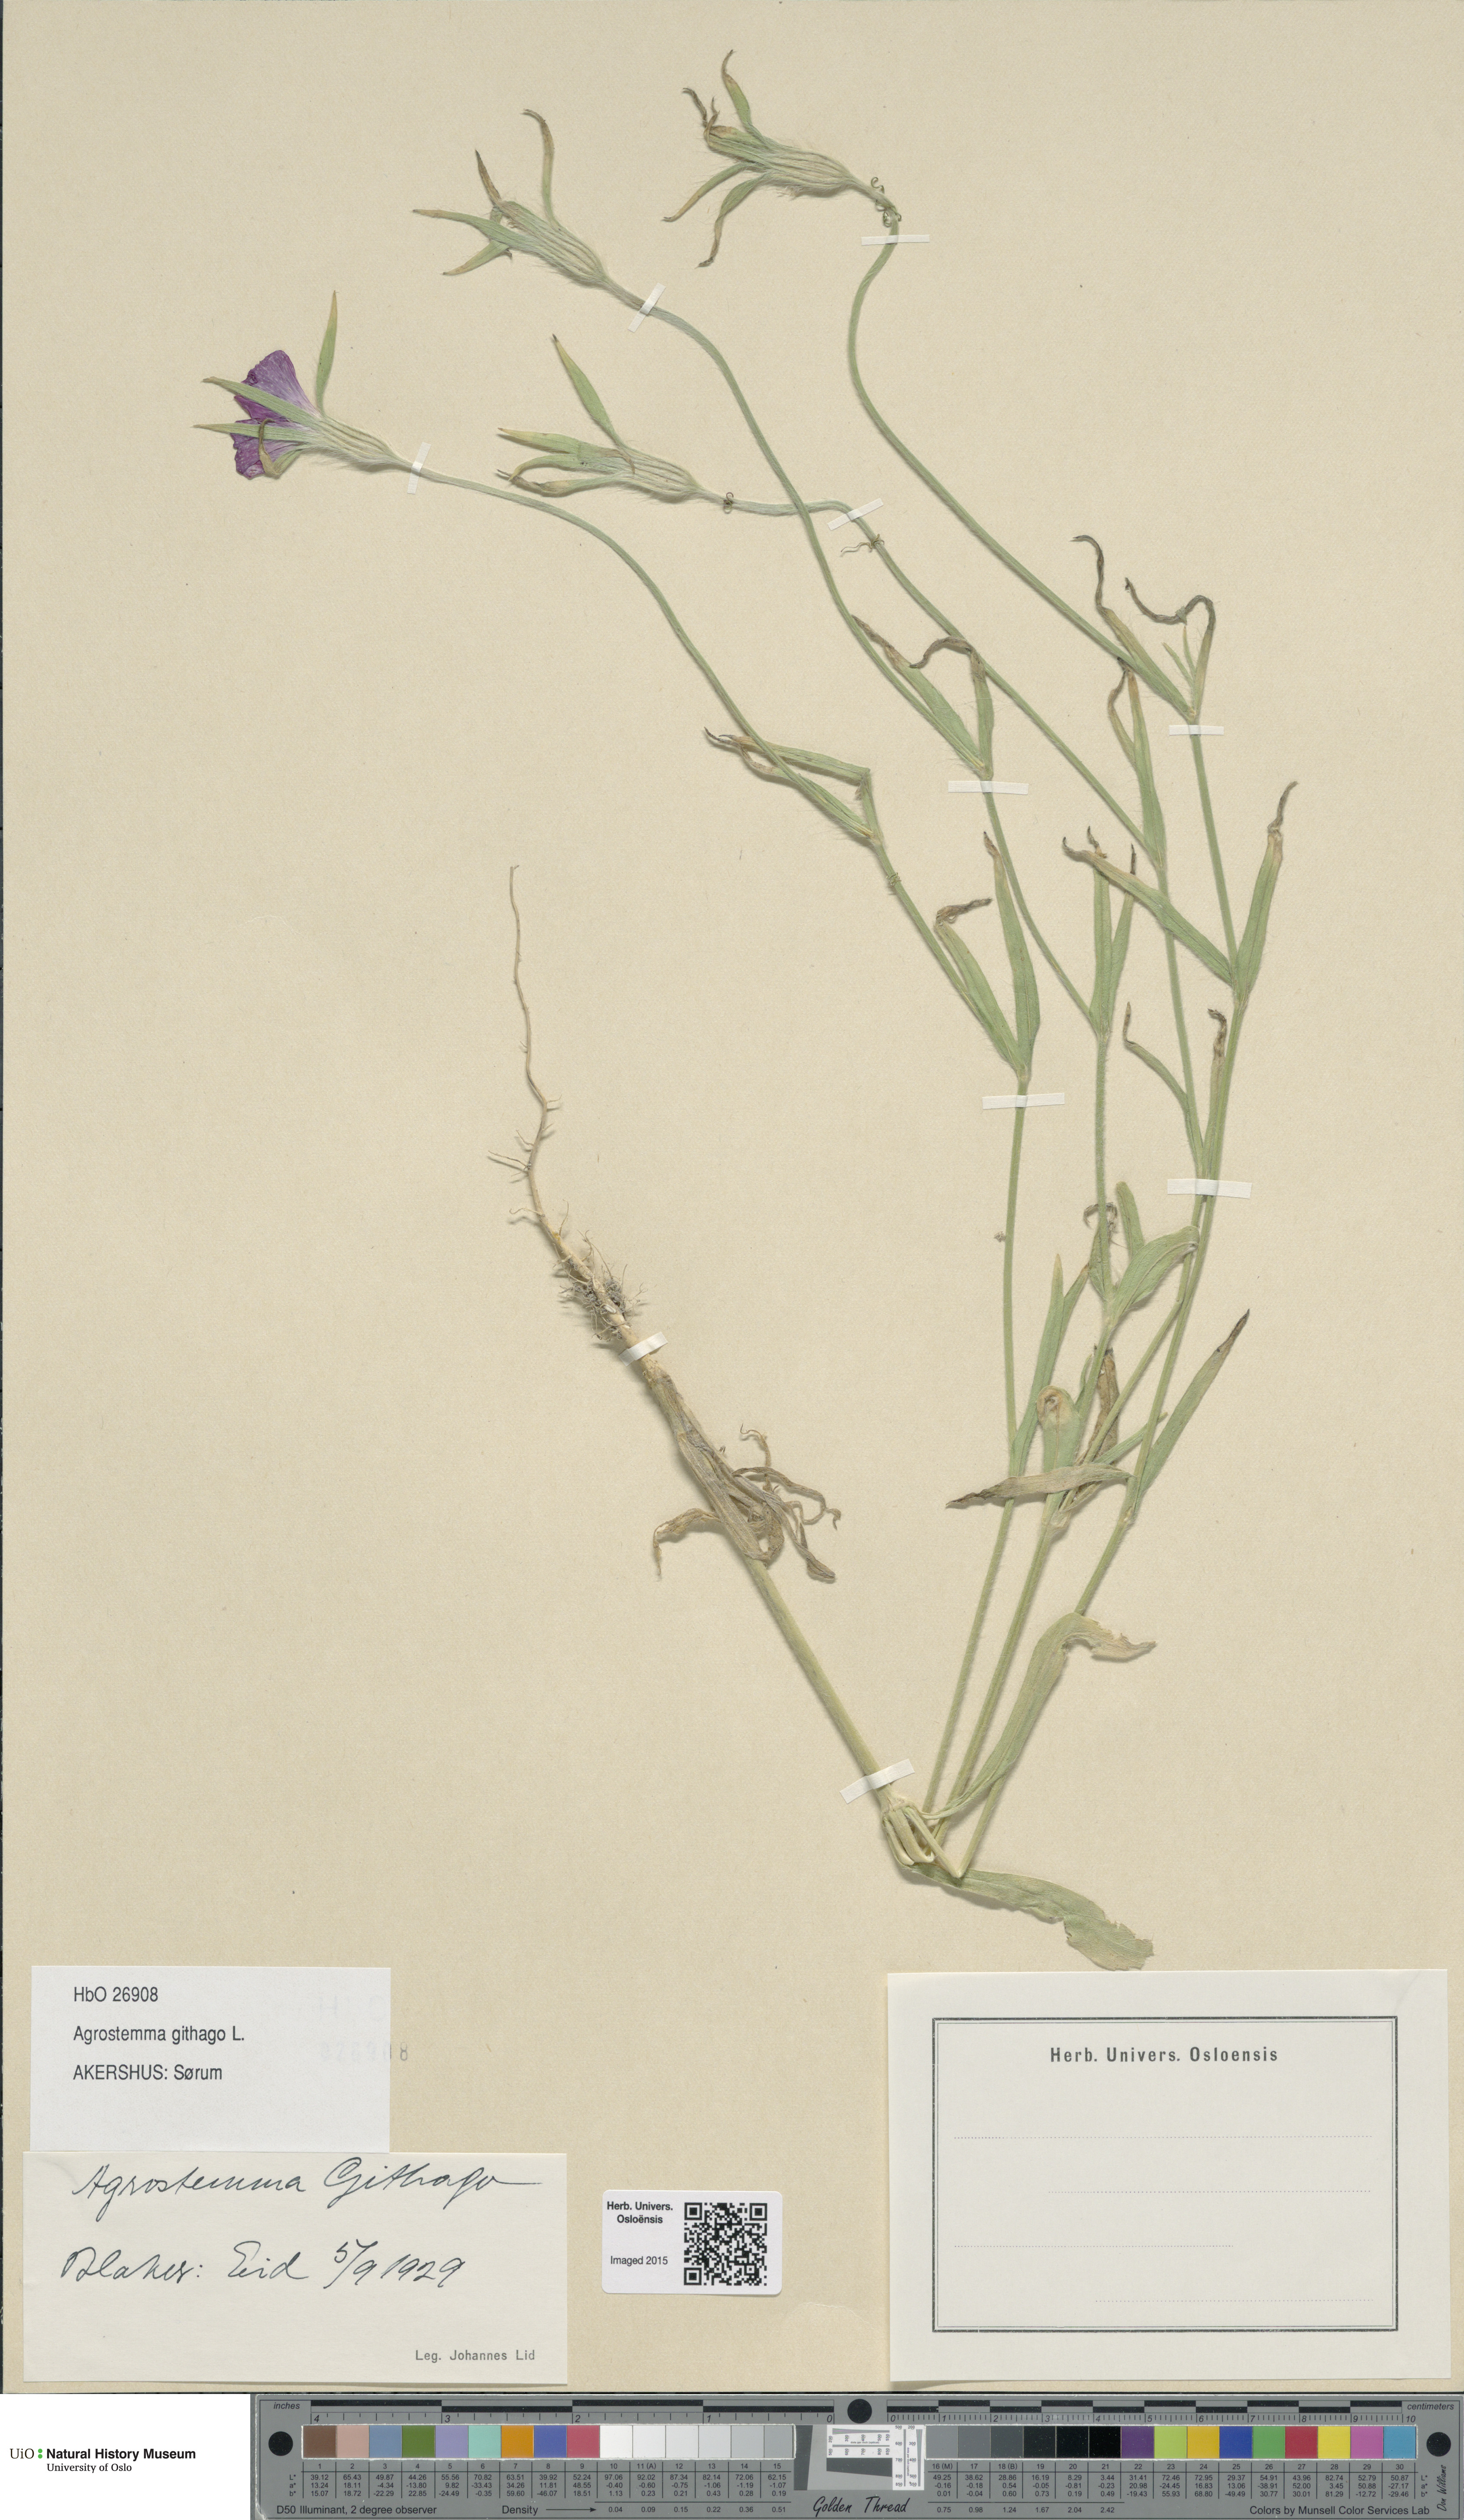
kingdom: Plantae
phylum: Tracheophyta
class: Magnoliopsida
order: Caryophyllales
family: Caryophyllaceae
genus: Agrostemma
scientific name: Agrostemma githago
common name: Common corncockle
